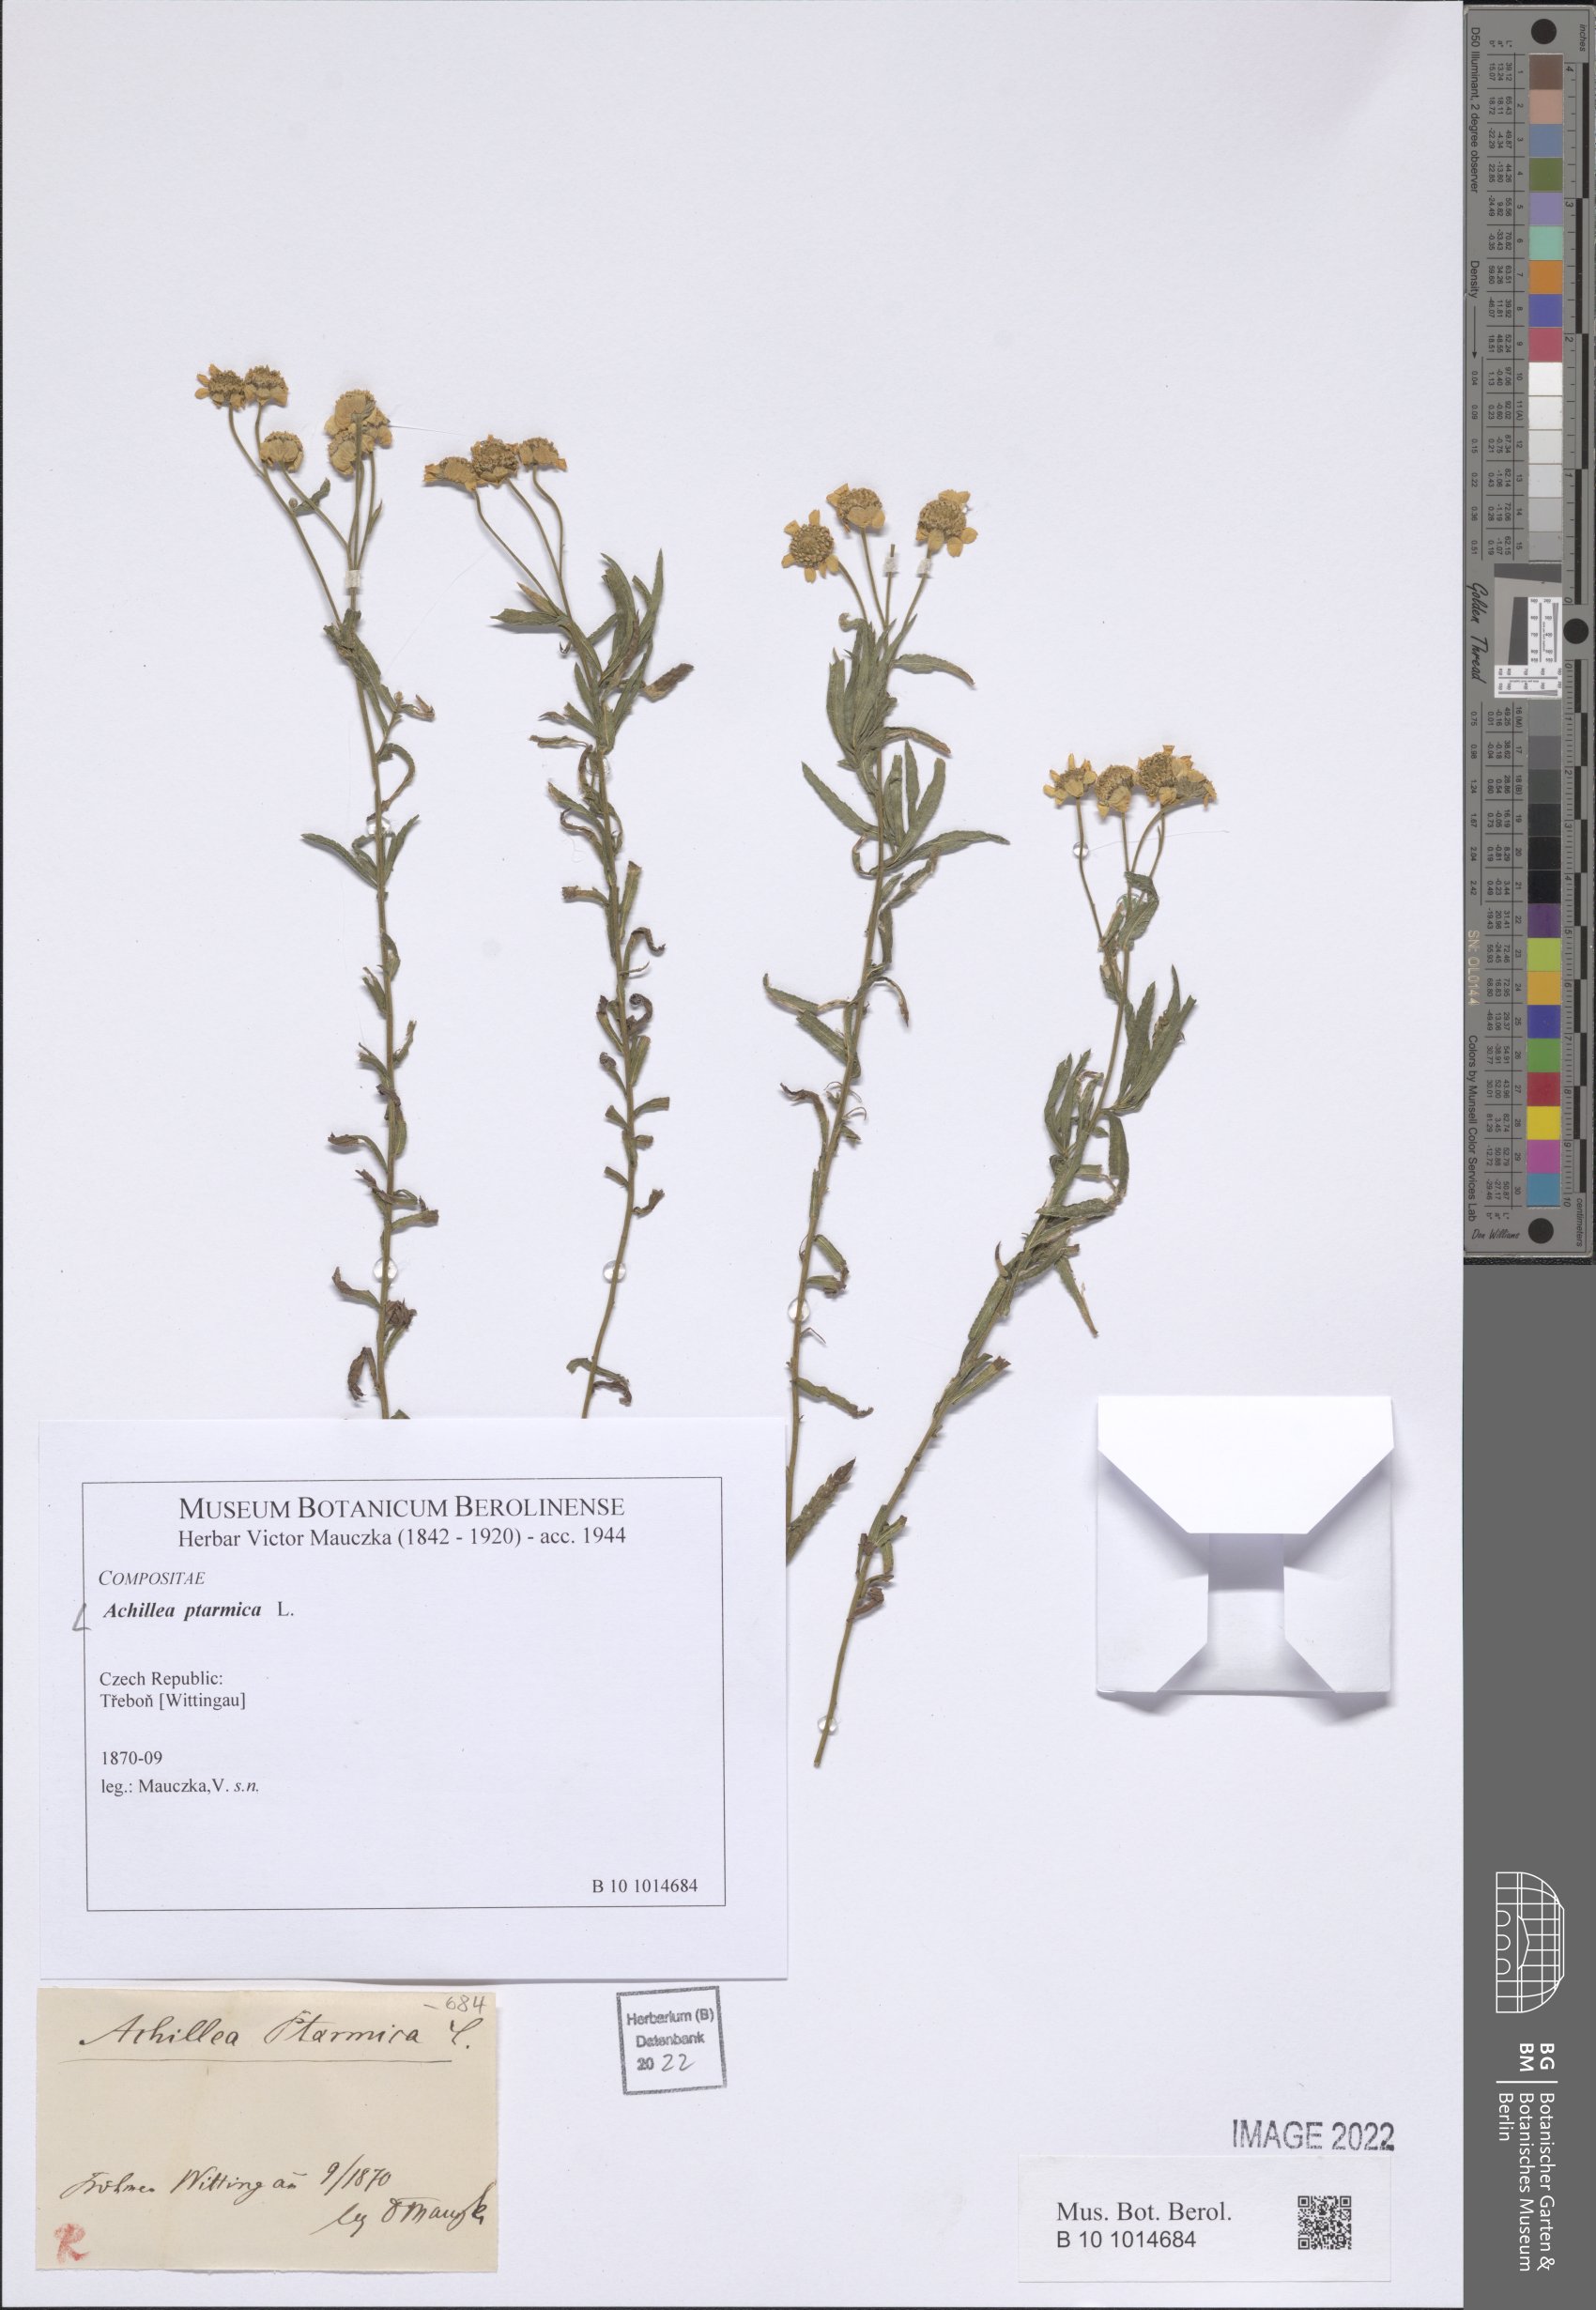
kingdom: Plantae
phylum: Tracheophyta
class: Magnoliopsida
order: Asterales
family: Asteraceae
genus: Achillea
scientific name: Achillea ptarmica
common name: Sneezeweed
